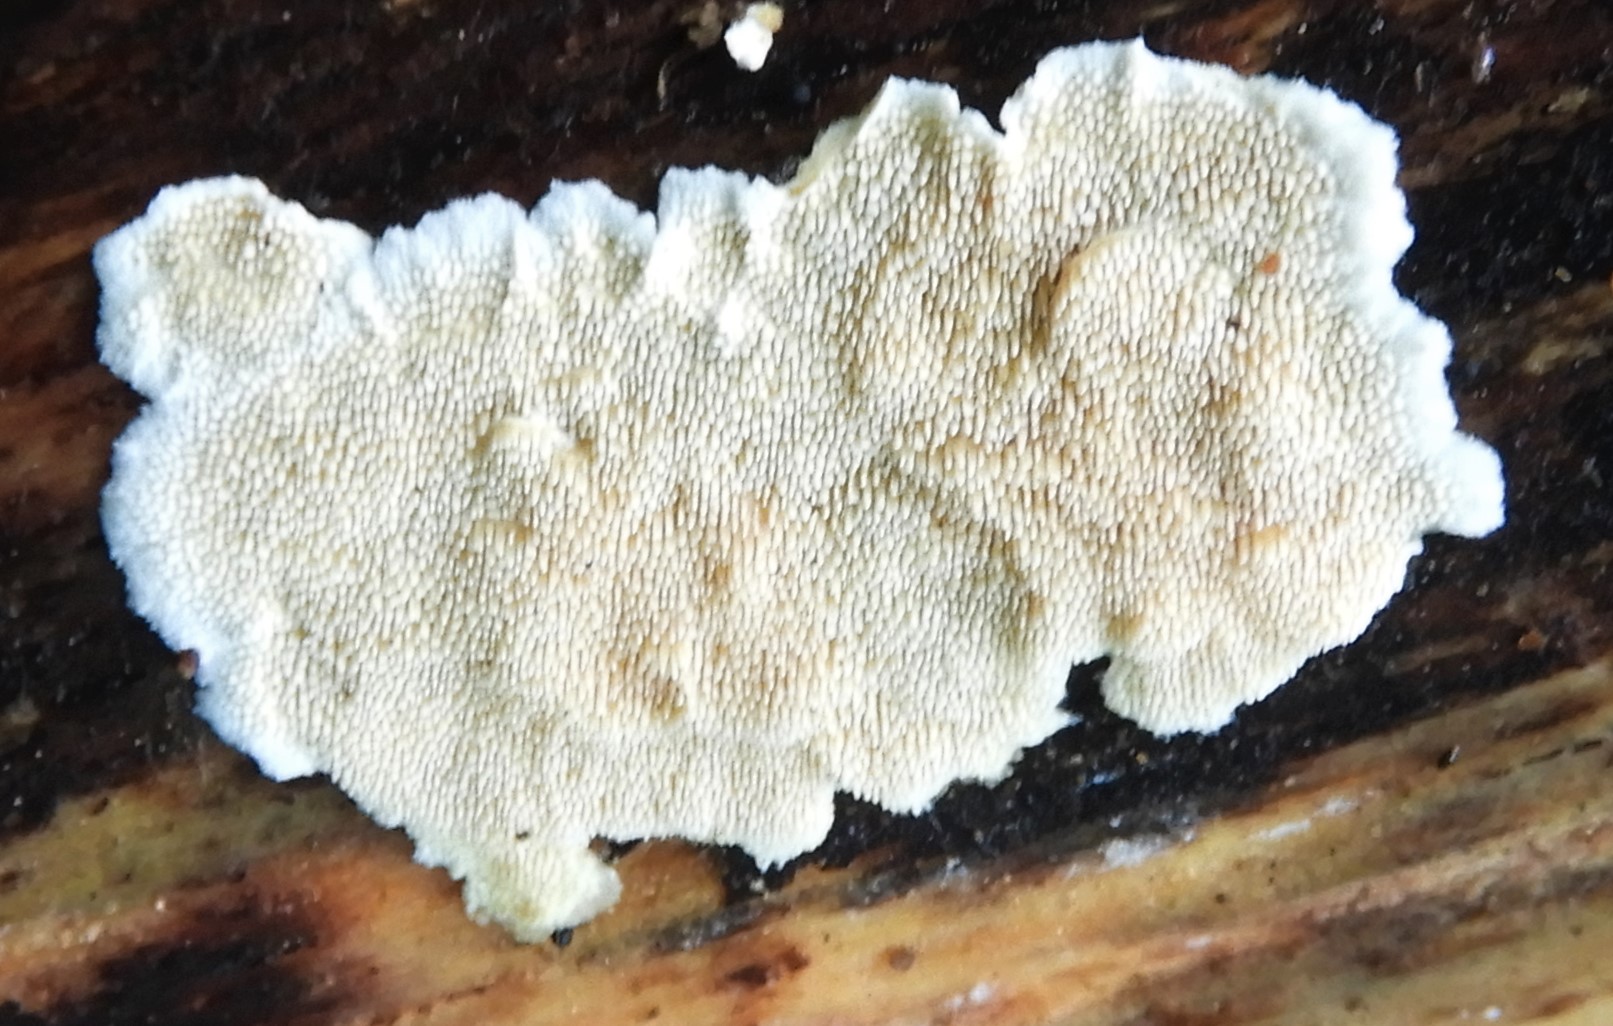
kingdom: Fungi
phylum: Basidiomycota
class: Agaricomycetes
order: Polyporales
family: Steccherinaceae
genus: Steccherinum
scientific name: Steccherinum ochraceum
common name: almindelig skønpig
